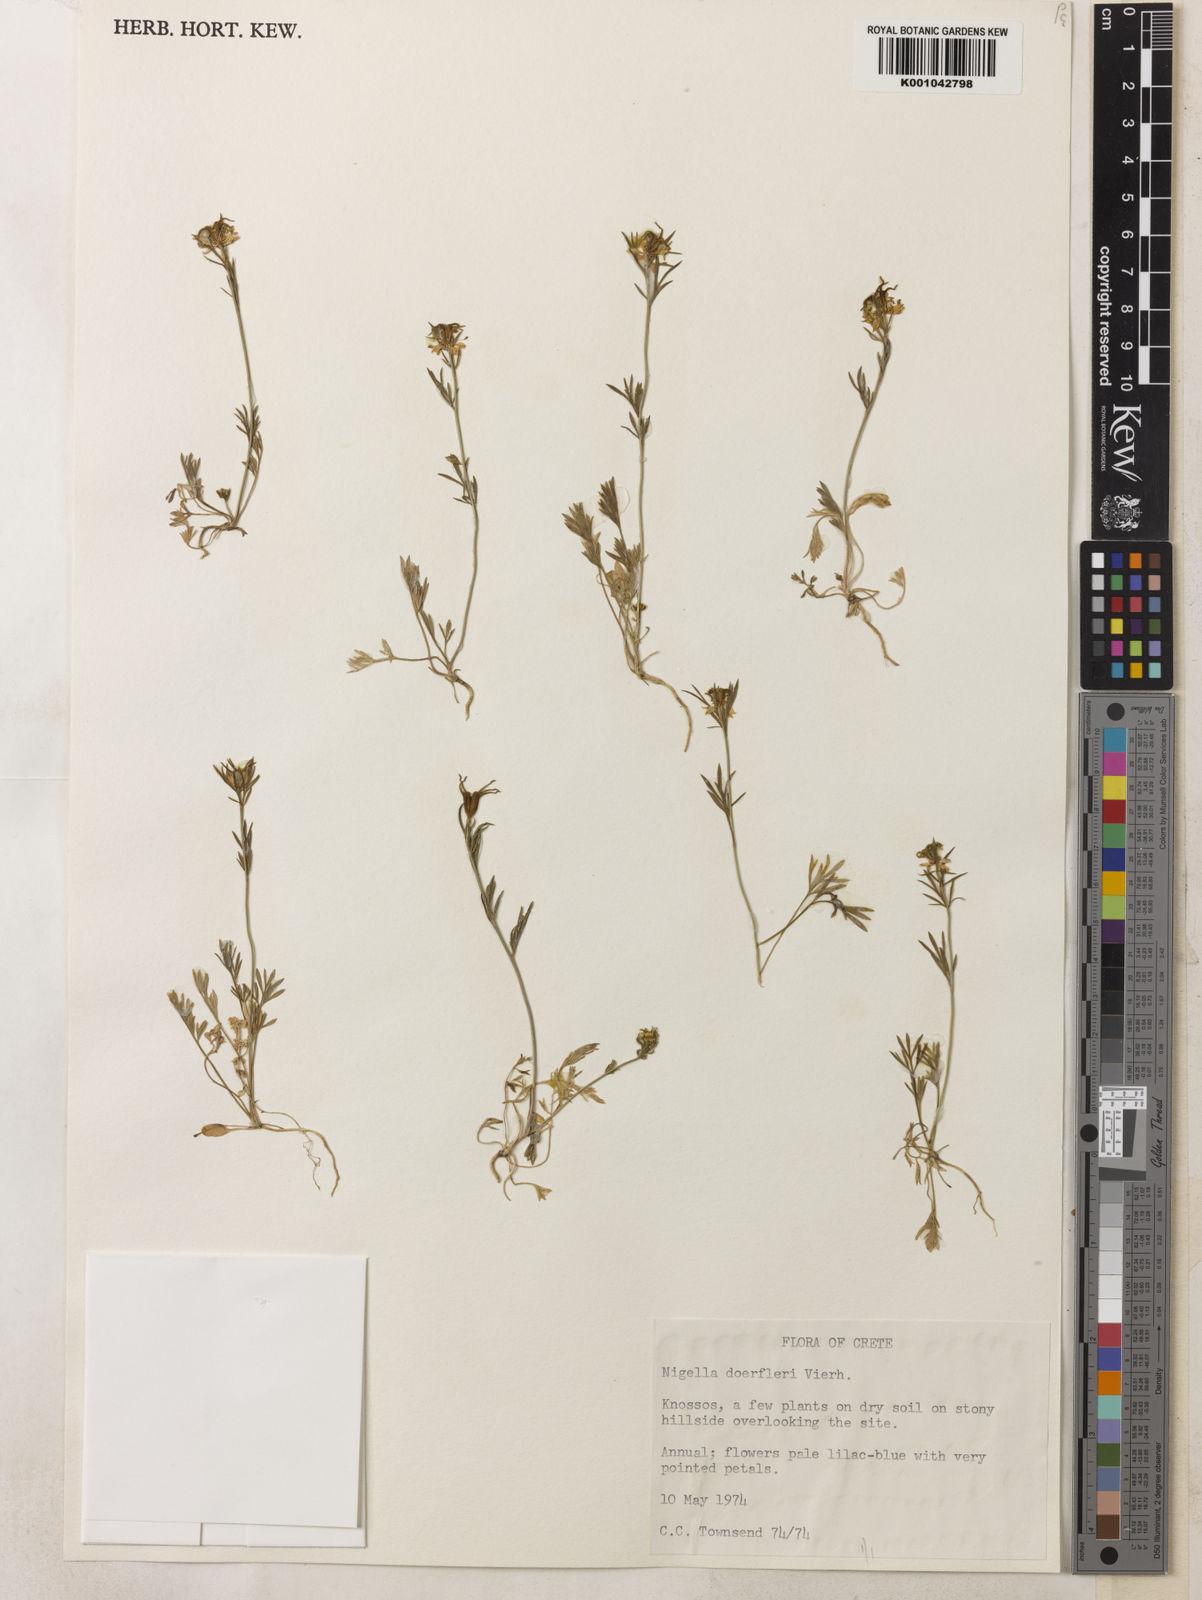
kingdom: Plantae
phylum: Tracheophyta
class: Magnoliopsida
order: Ranunculales
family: Ranunculaceae
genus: Nigella
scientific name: Nigella doerfleri
